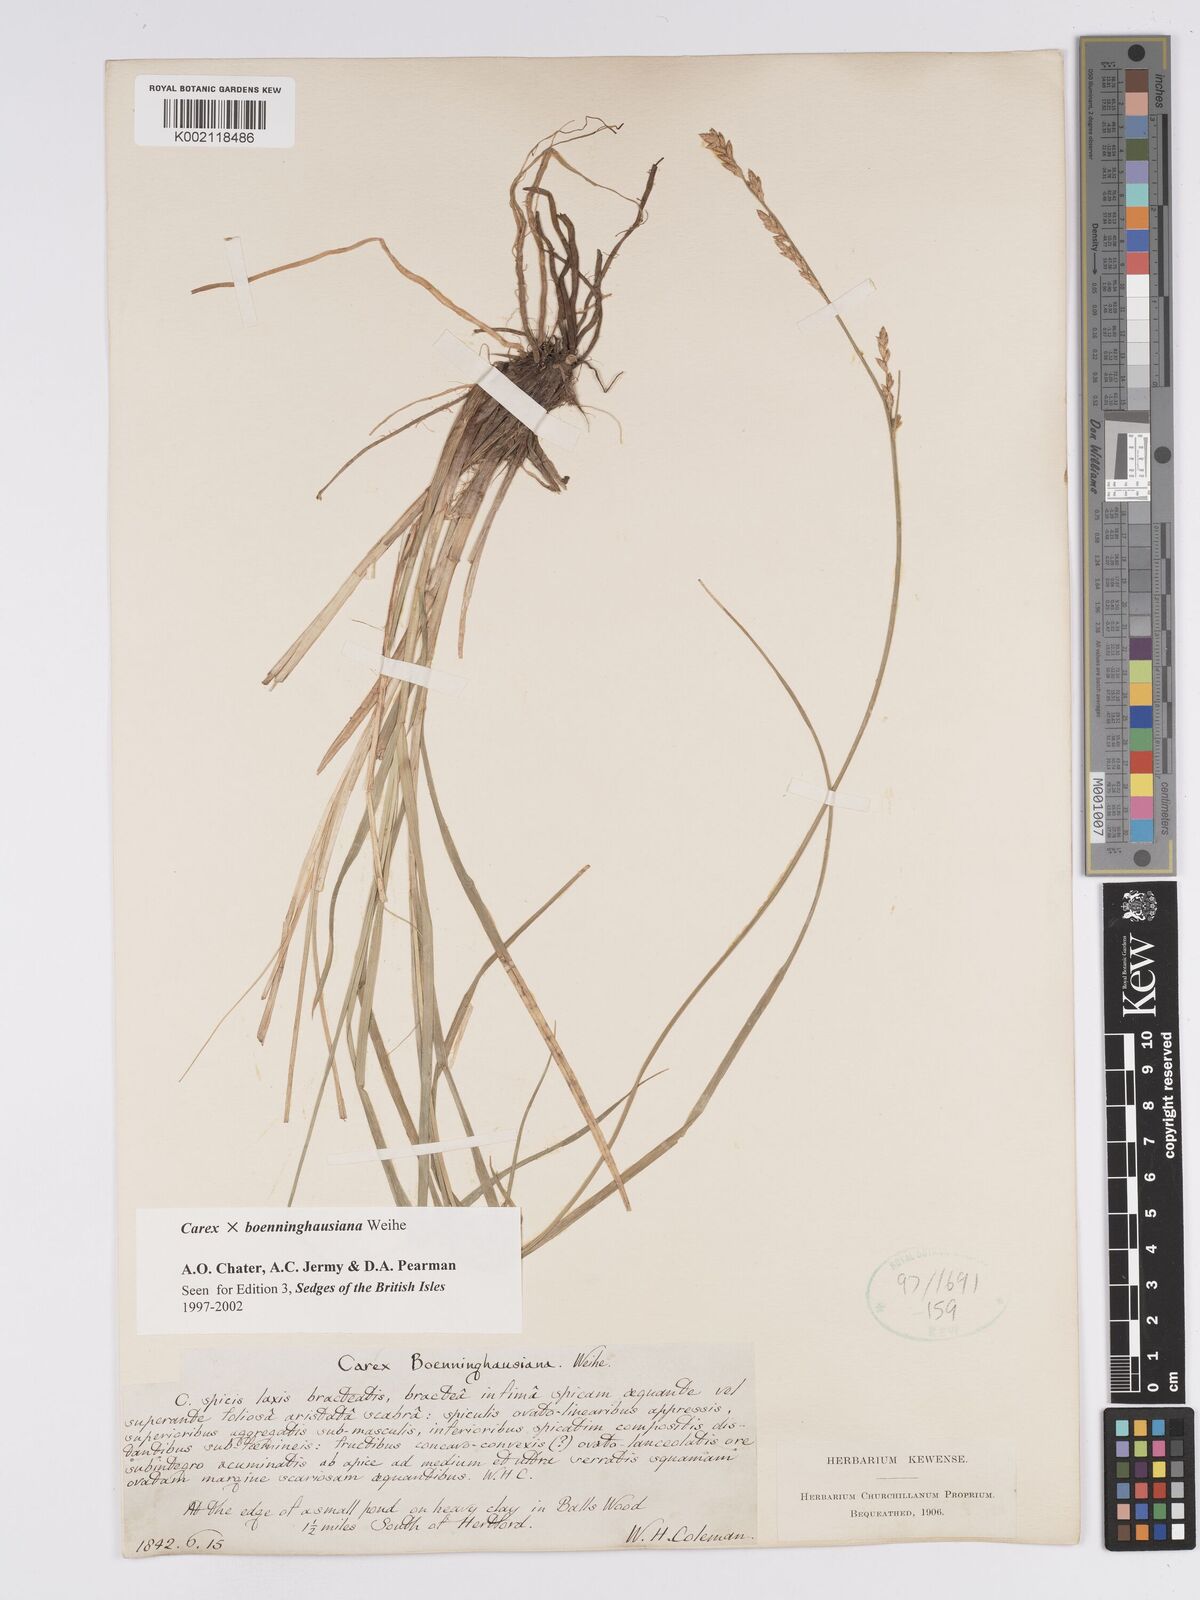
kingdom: Plantae
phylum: Tracheophyta
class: Liliopsida
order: Poales
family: Cyperaceae
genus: Carex
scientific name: Carex boenninghausiana
